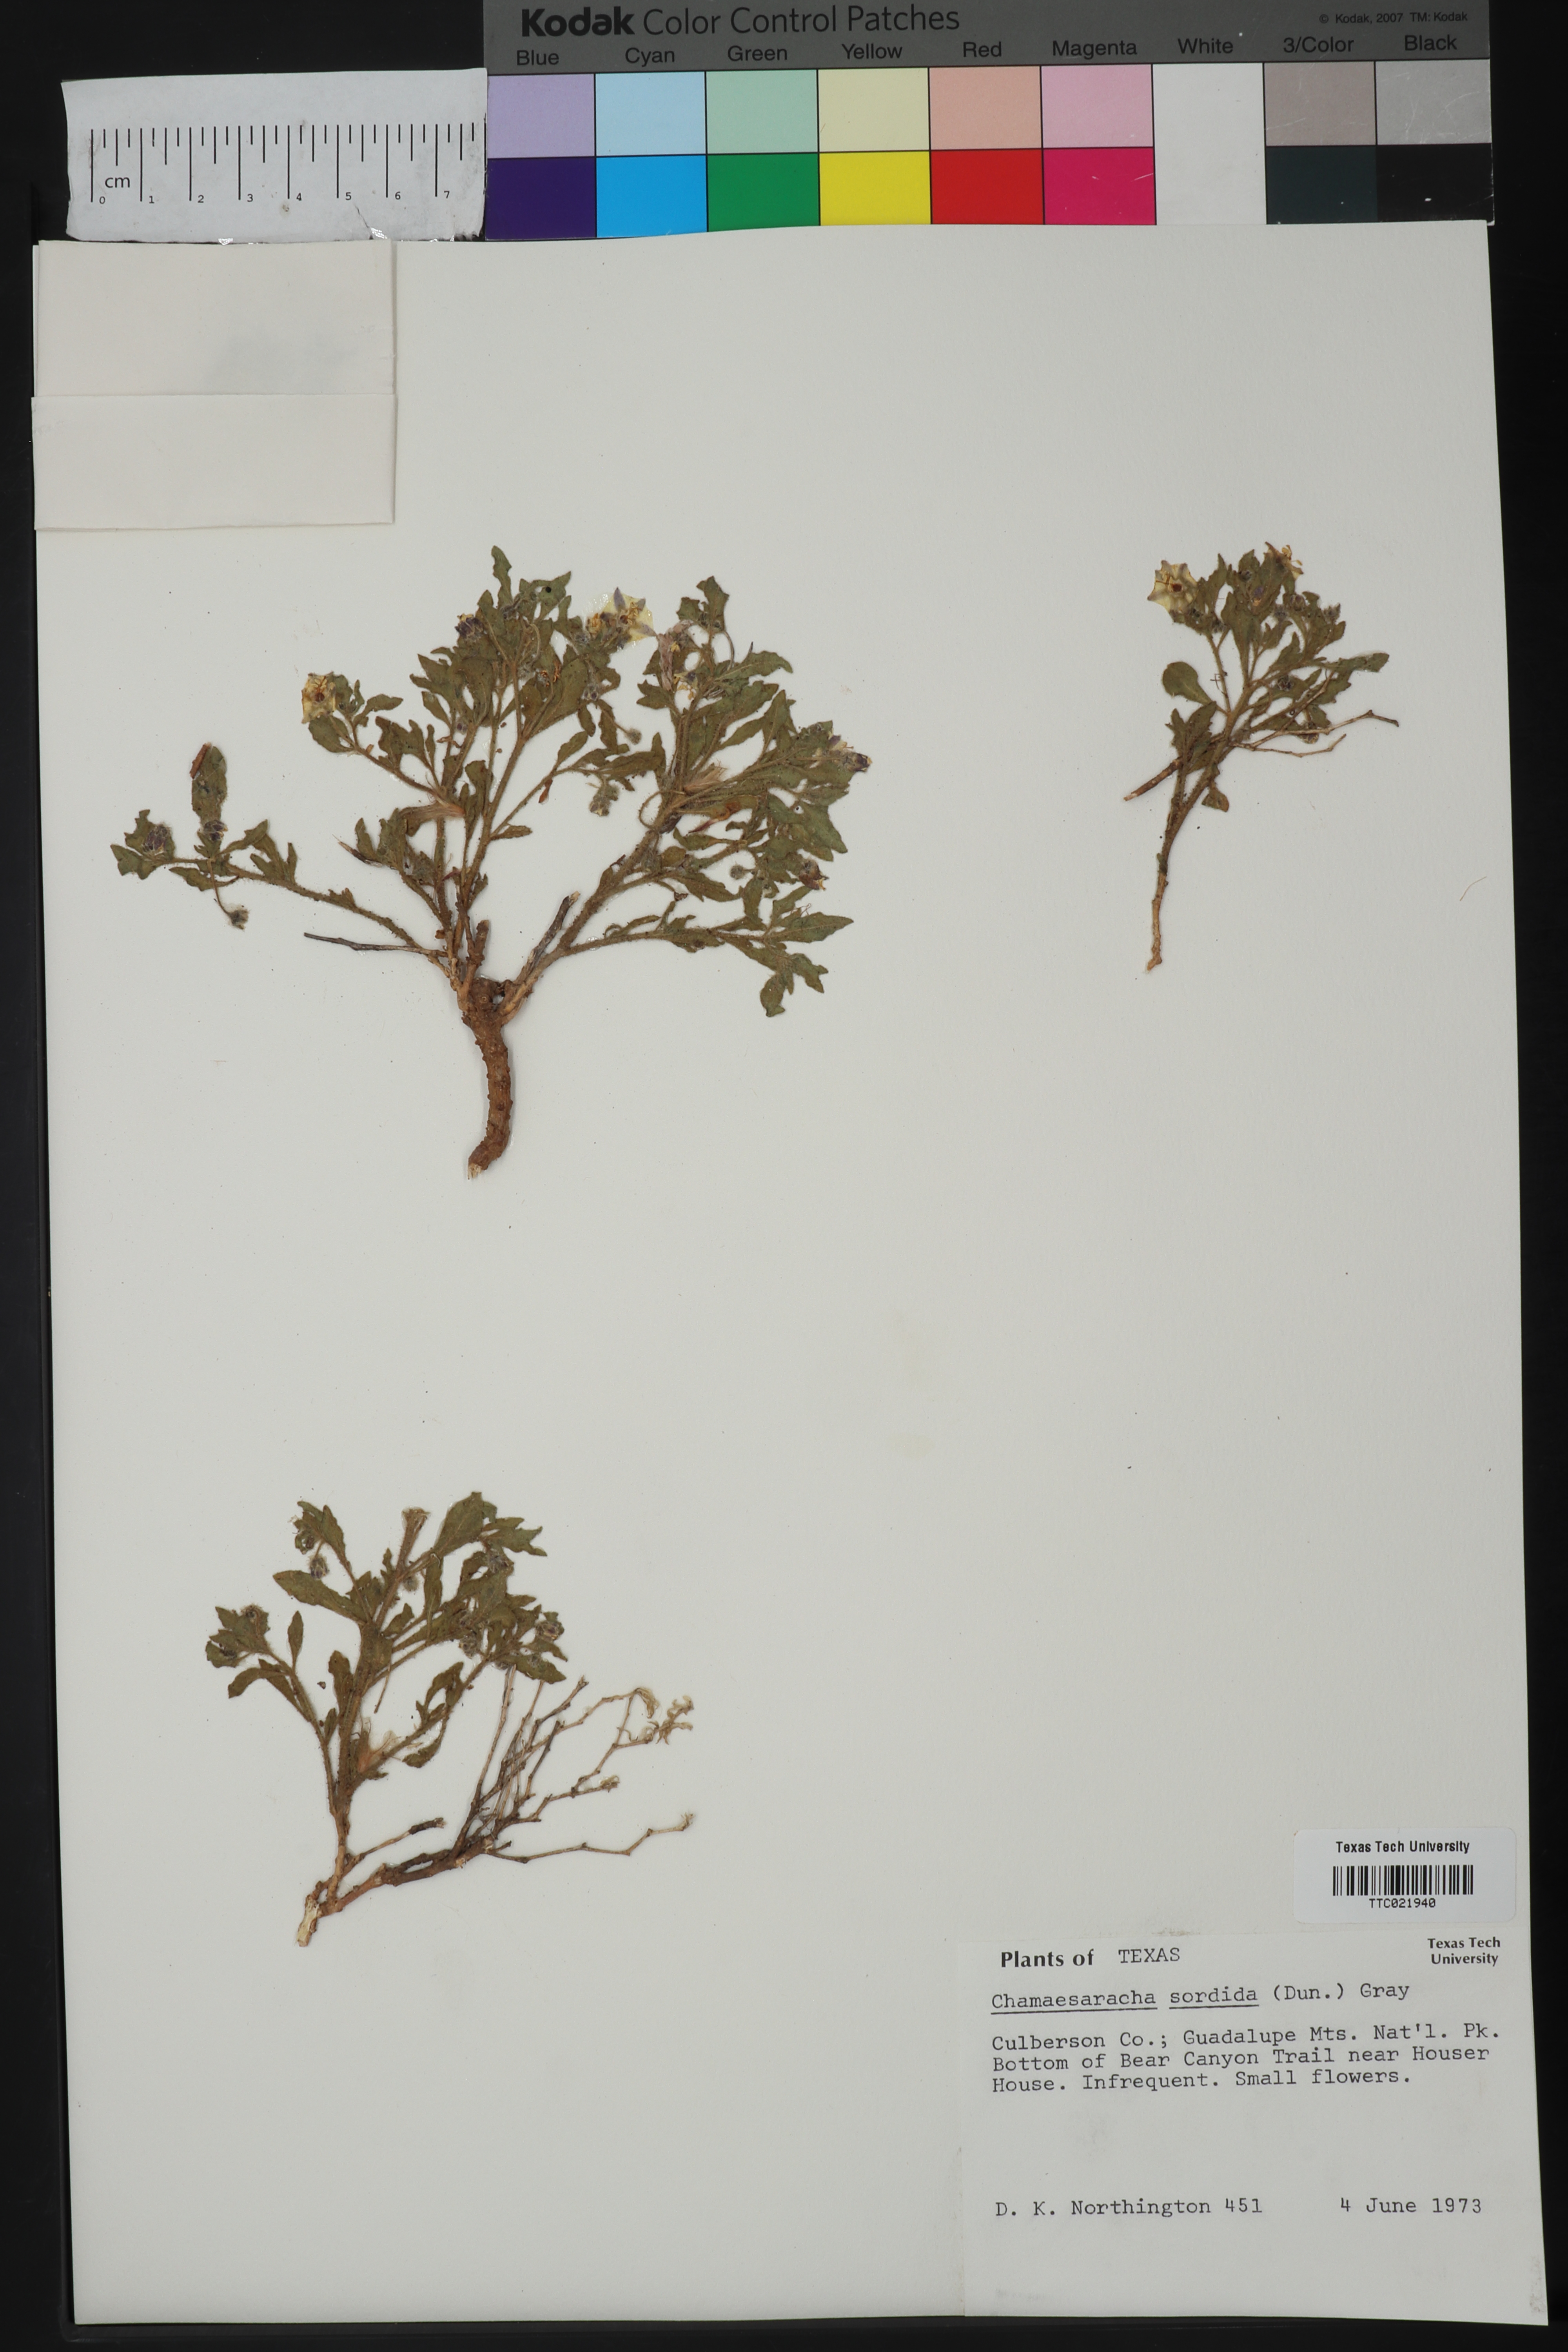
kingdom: Plantae
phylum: Tracheophyta
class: Magnoliopsida
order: Solanales
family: Solanaceae
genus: Chamaesaracha
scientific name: Chamaesaracha sordida
